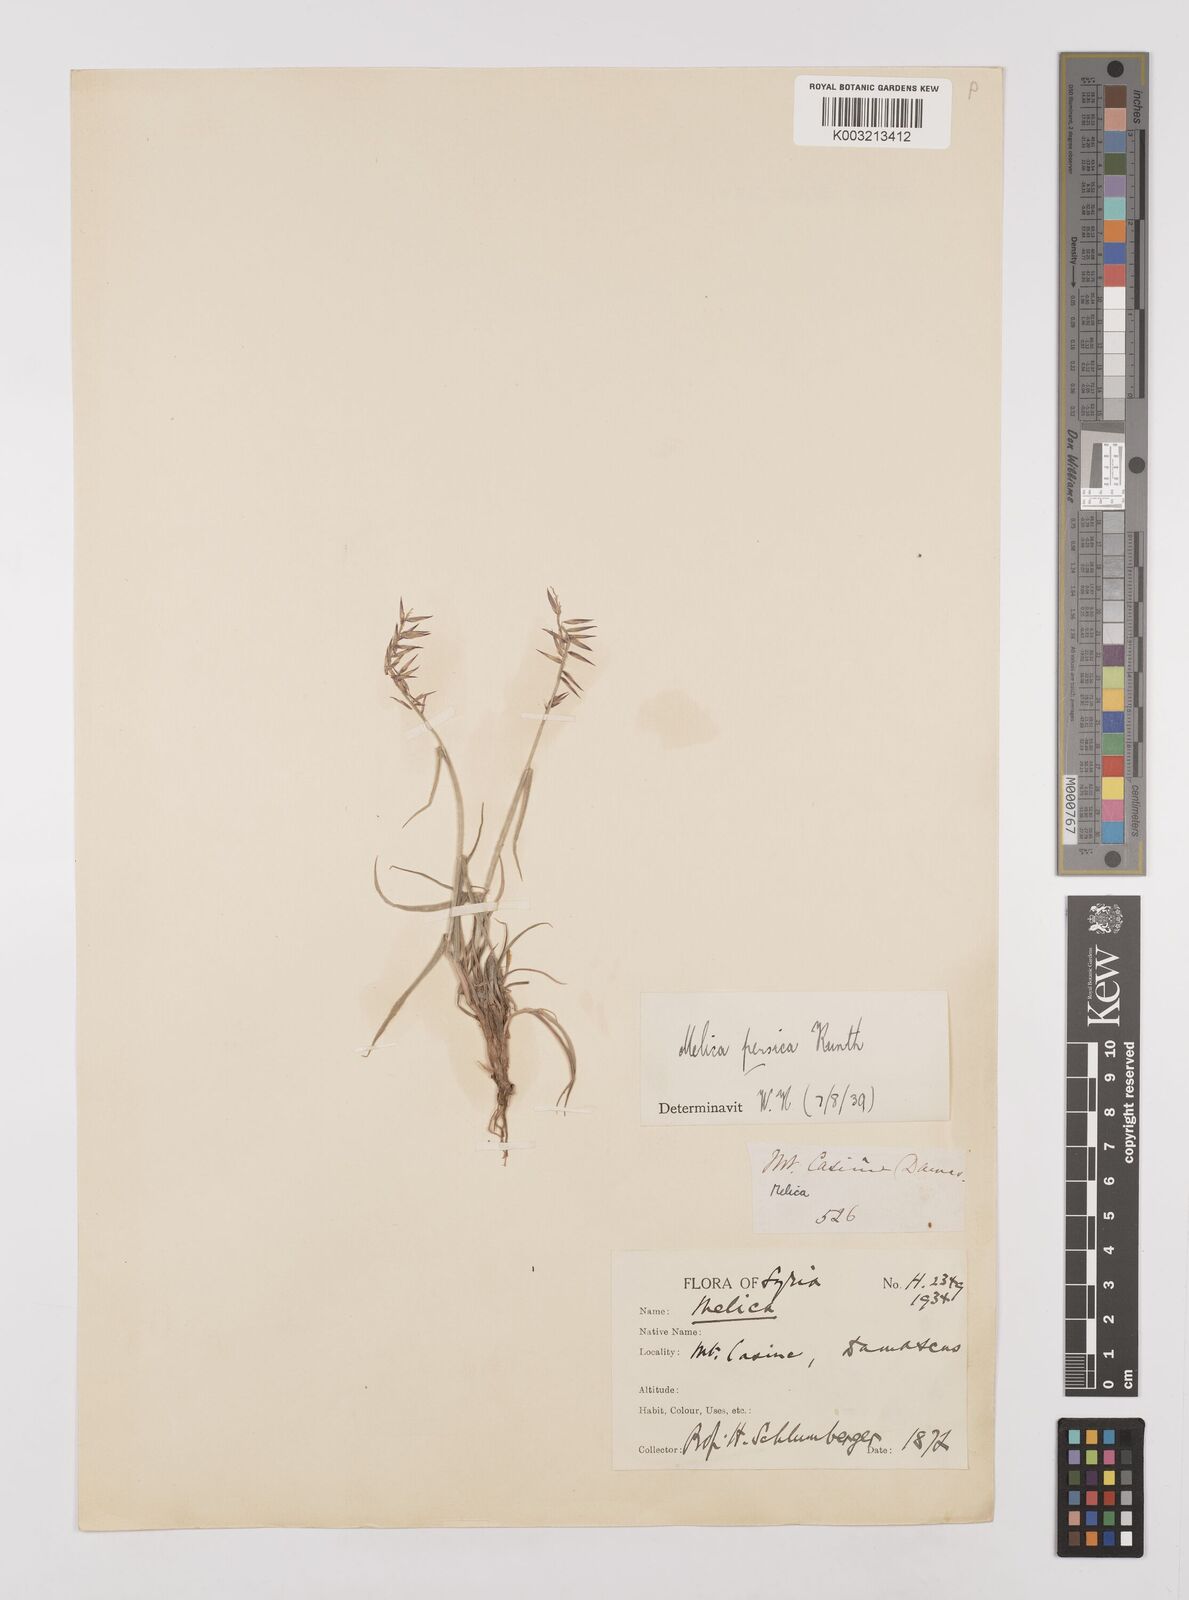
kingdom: Plantae
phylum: Tracheophyta
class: Liliopsida
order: Poales
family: Poaceae
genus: Melica
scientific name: Melica persica
